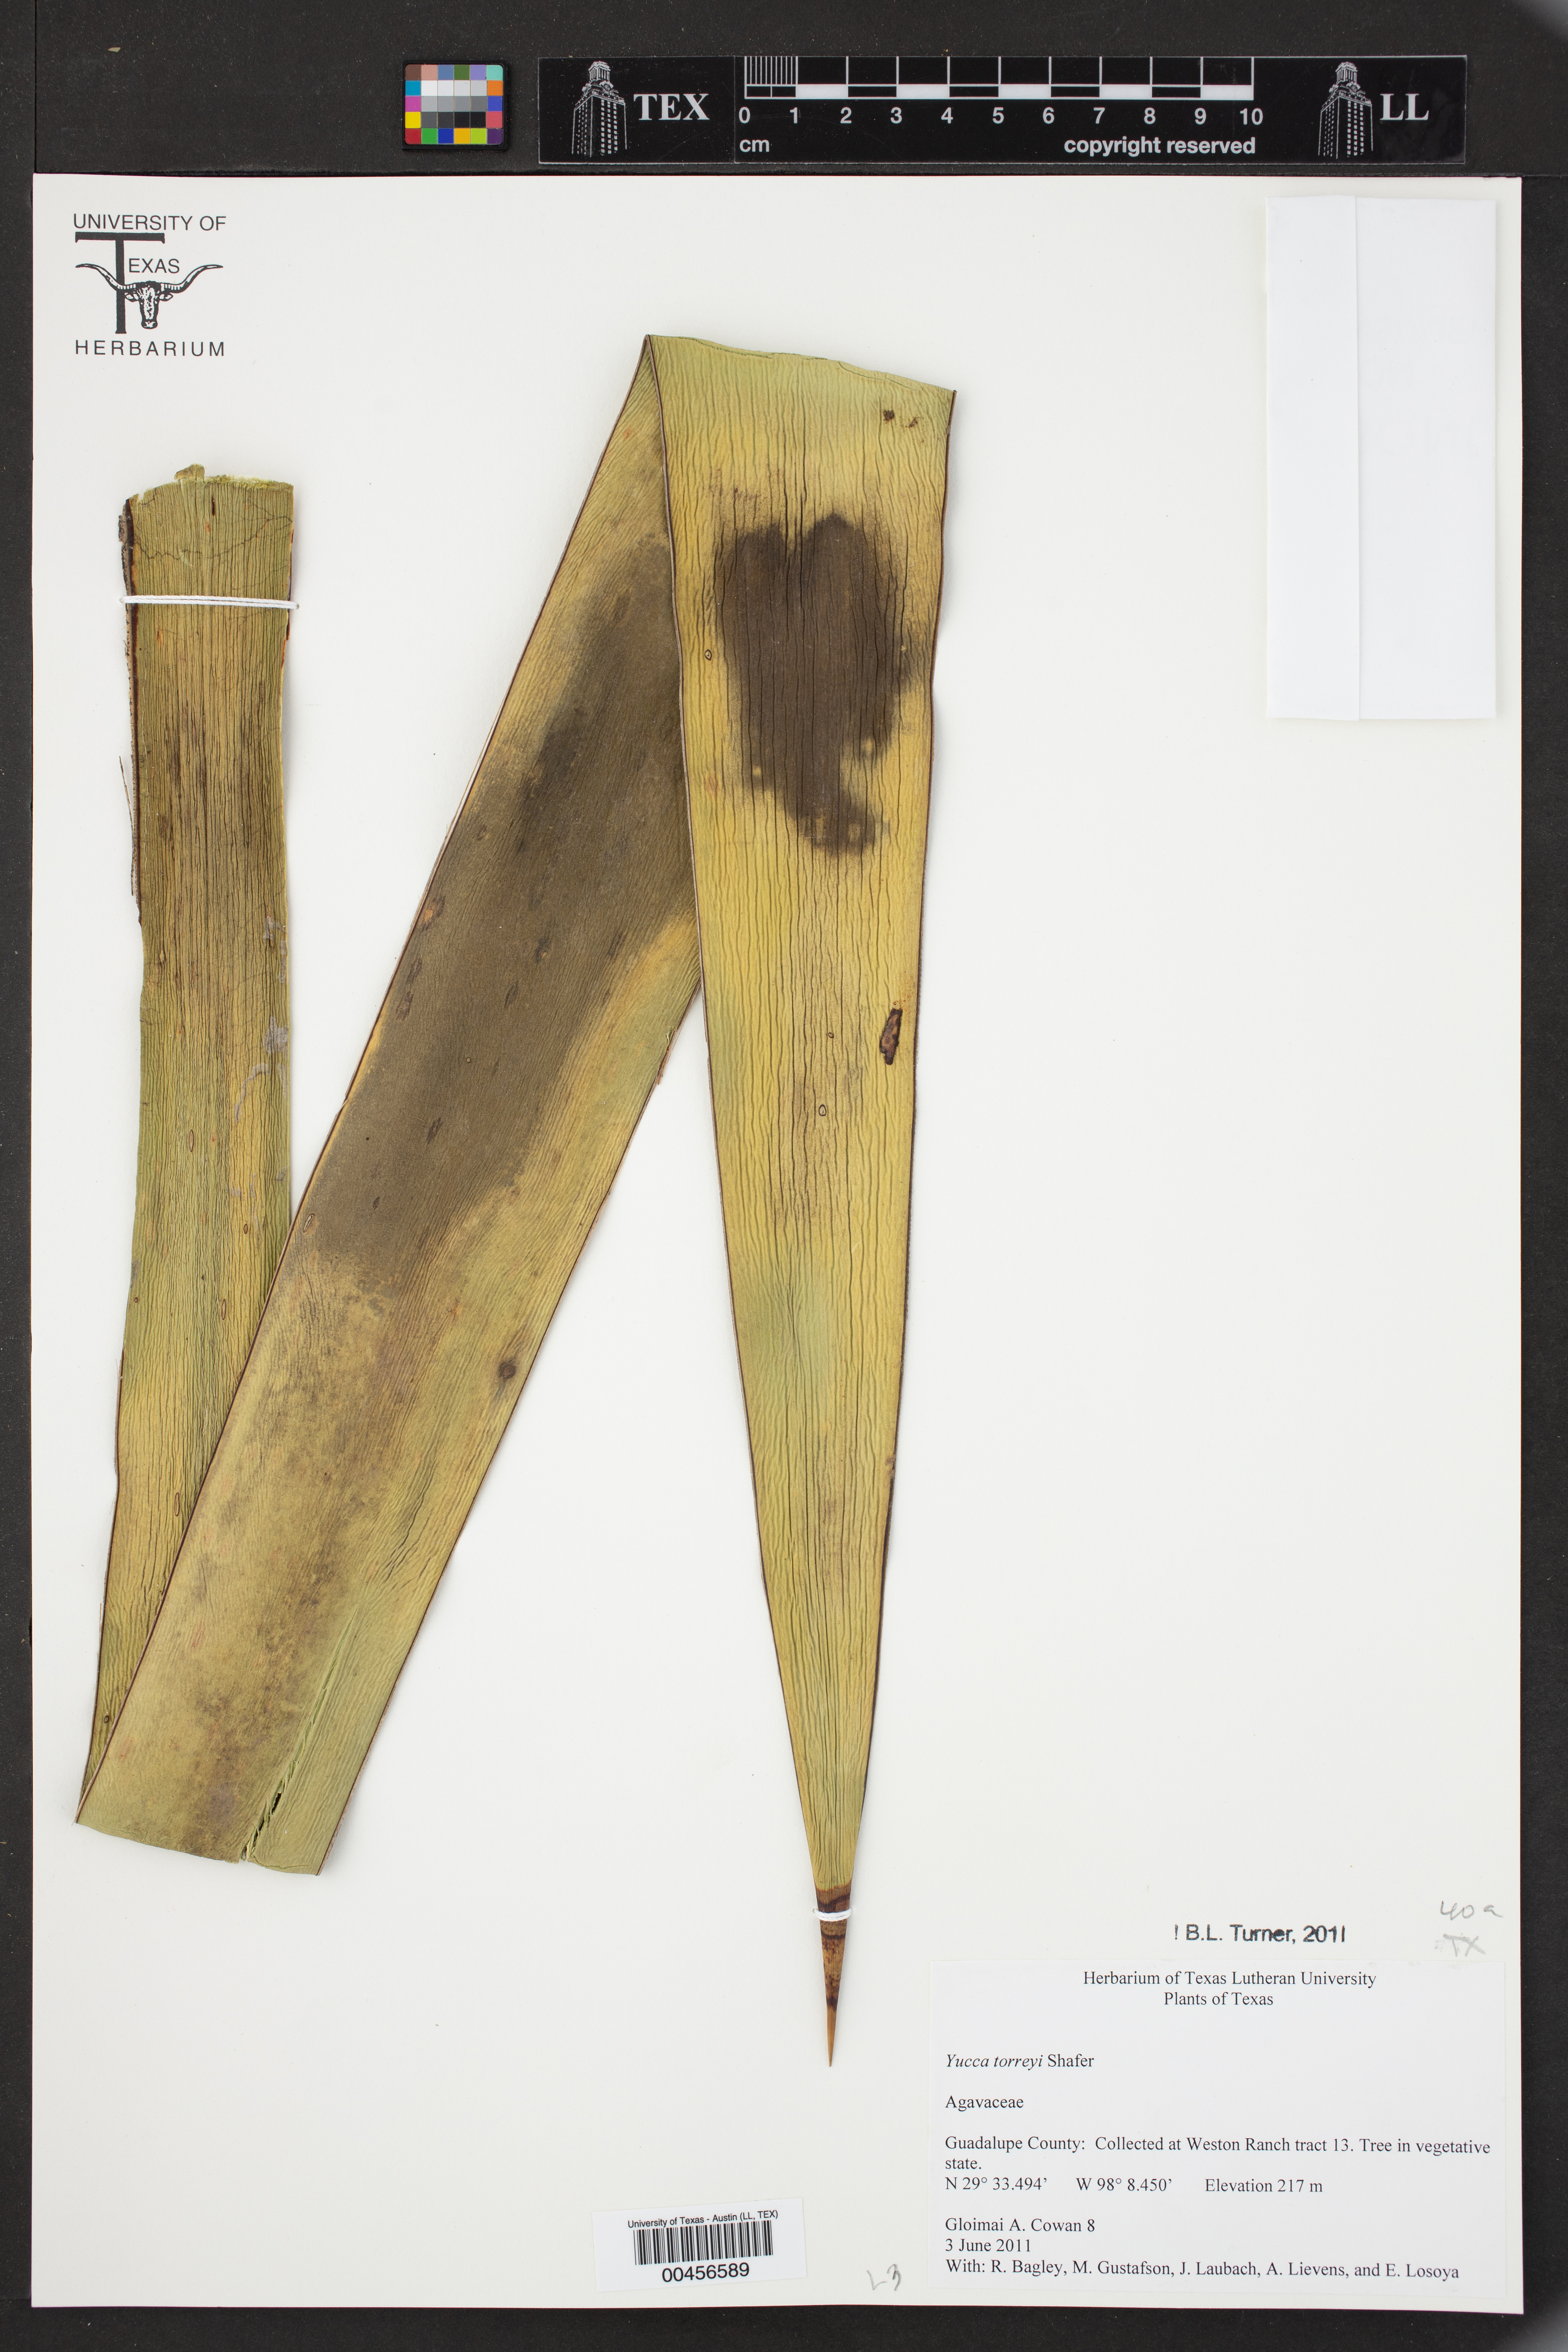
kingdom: Plantae
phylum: Tracheophyta
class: Liliopsida
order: Asparagales
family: Asparagaceae
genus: Yucca
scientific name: Yucca treculiana
